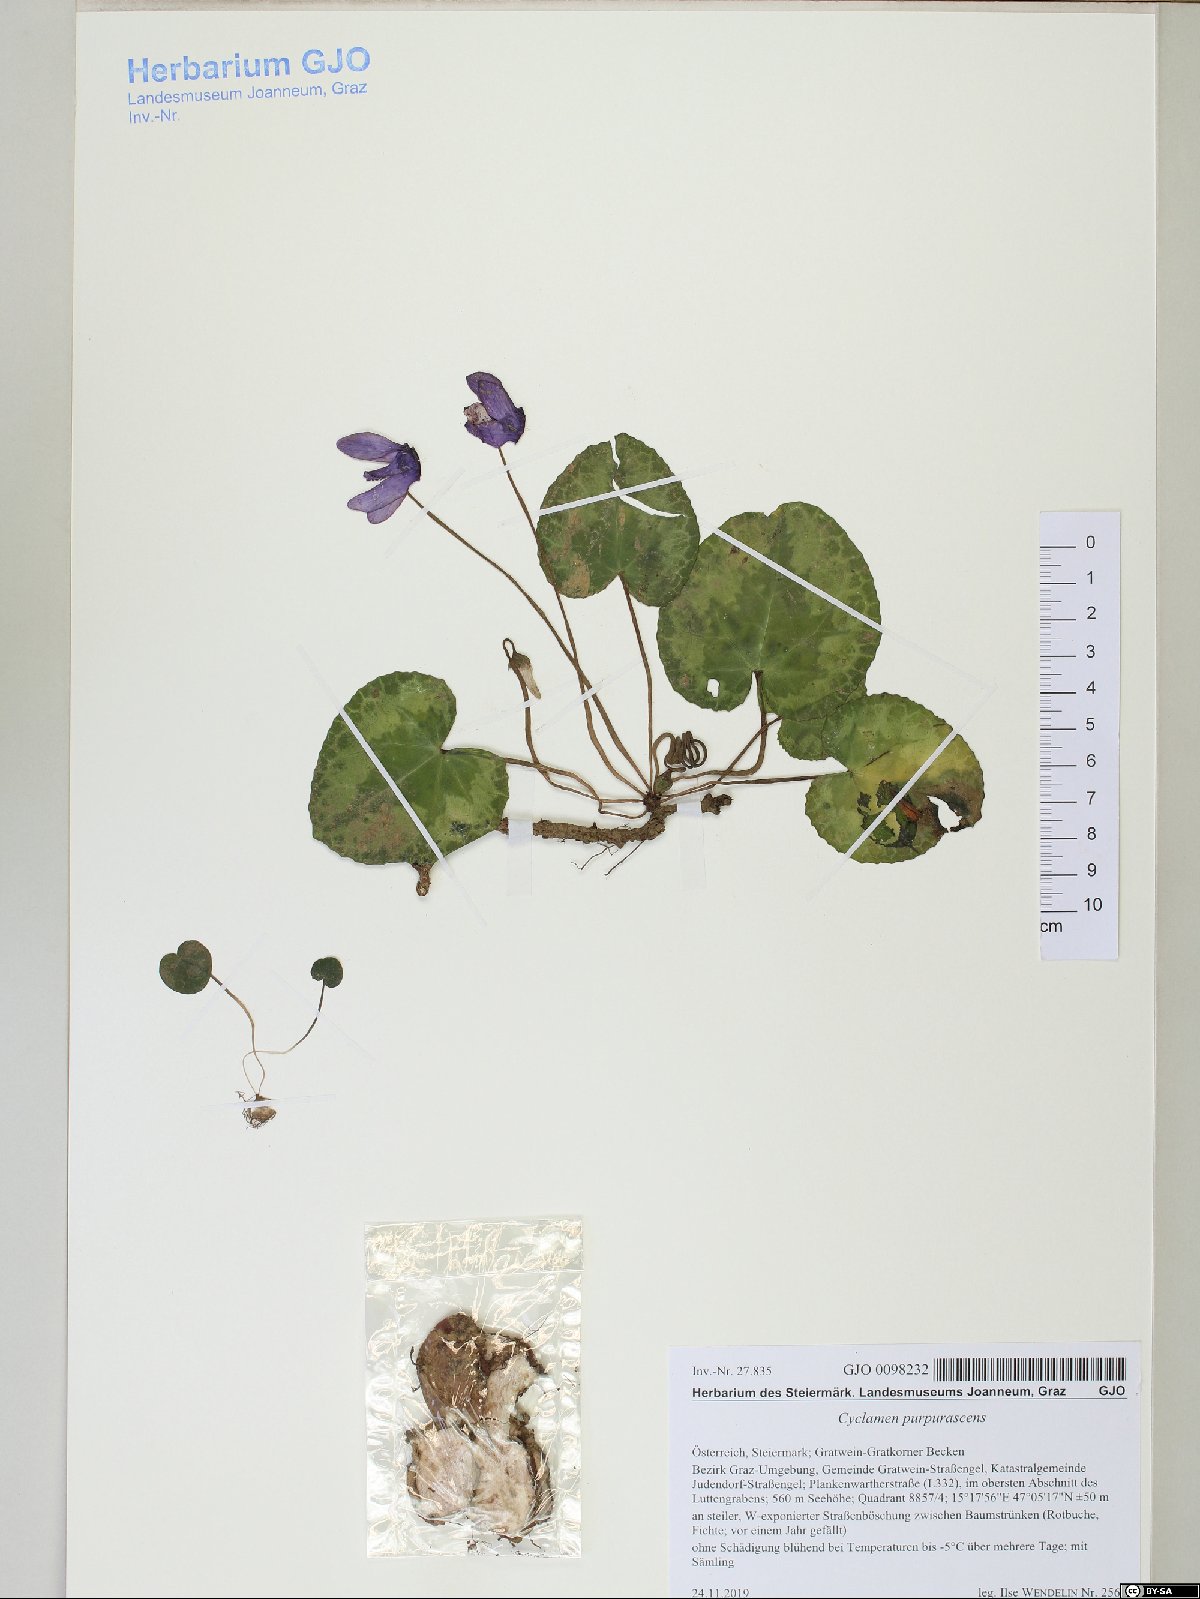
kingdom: Plantae
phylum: Tracheophyta
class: Magnoliopsida
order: Ericales
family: Primulaceae
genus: Cyclamen
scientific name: Cyclamen purpurascens
